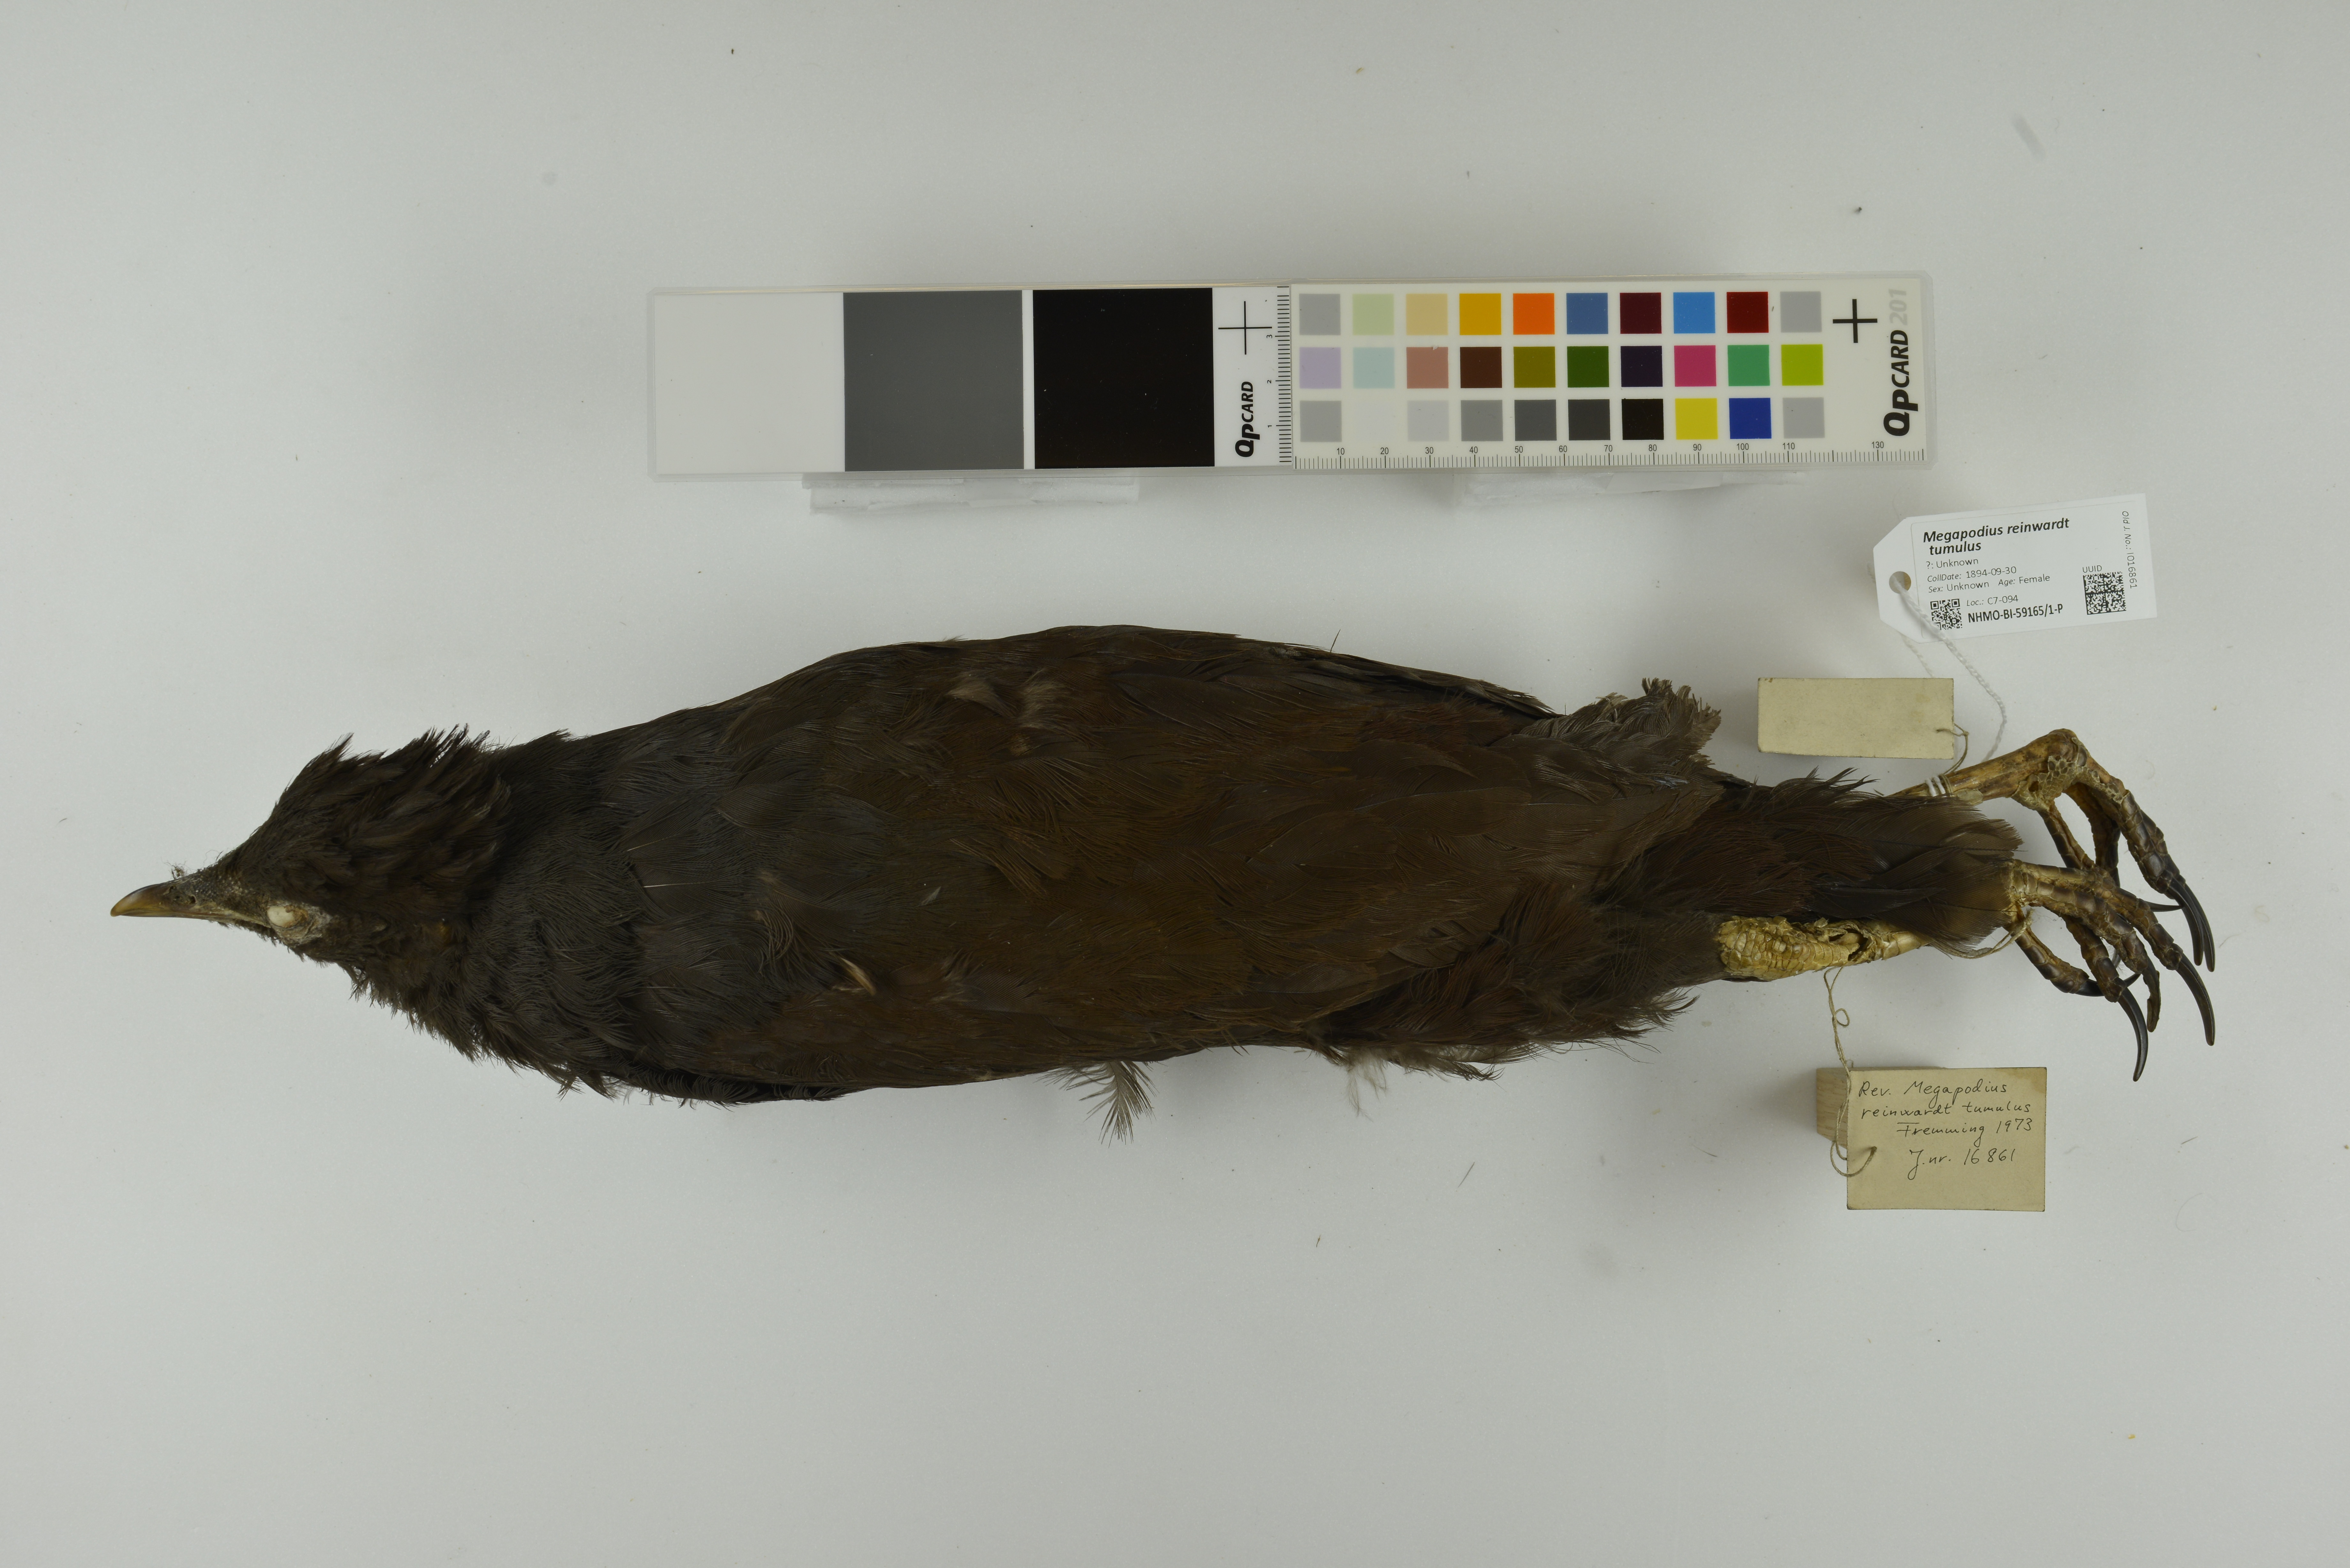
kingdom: Animalia
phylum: Chordata
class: Aves
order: Galliformes
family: Megapodiidae
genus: Megapodius
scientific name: Megapodius reinwardt
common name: Orange-footed scrubfowl
